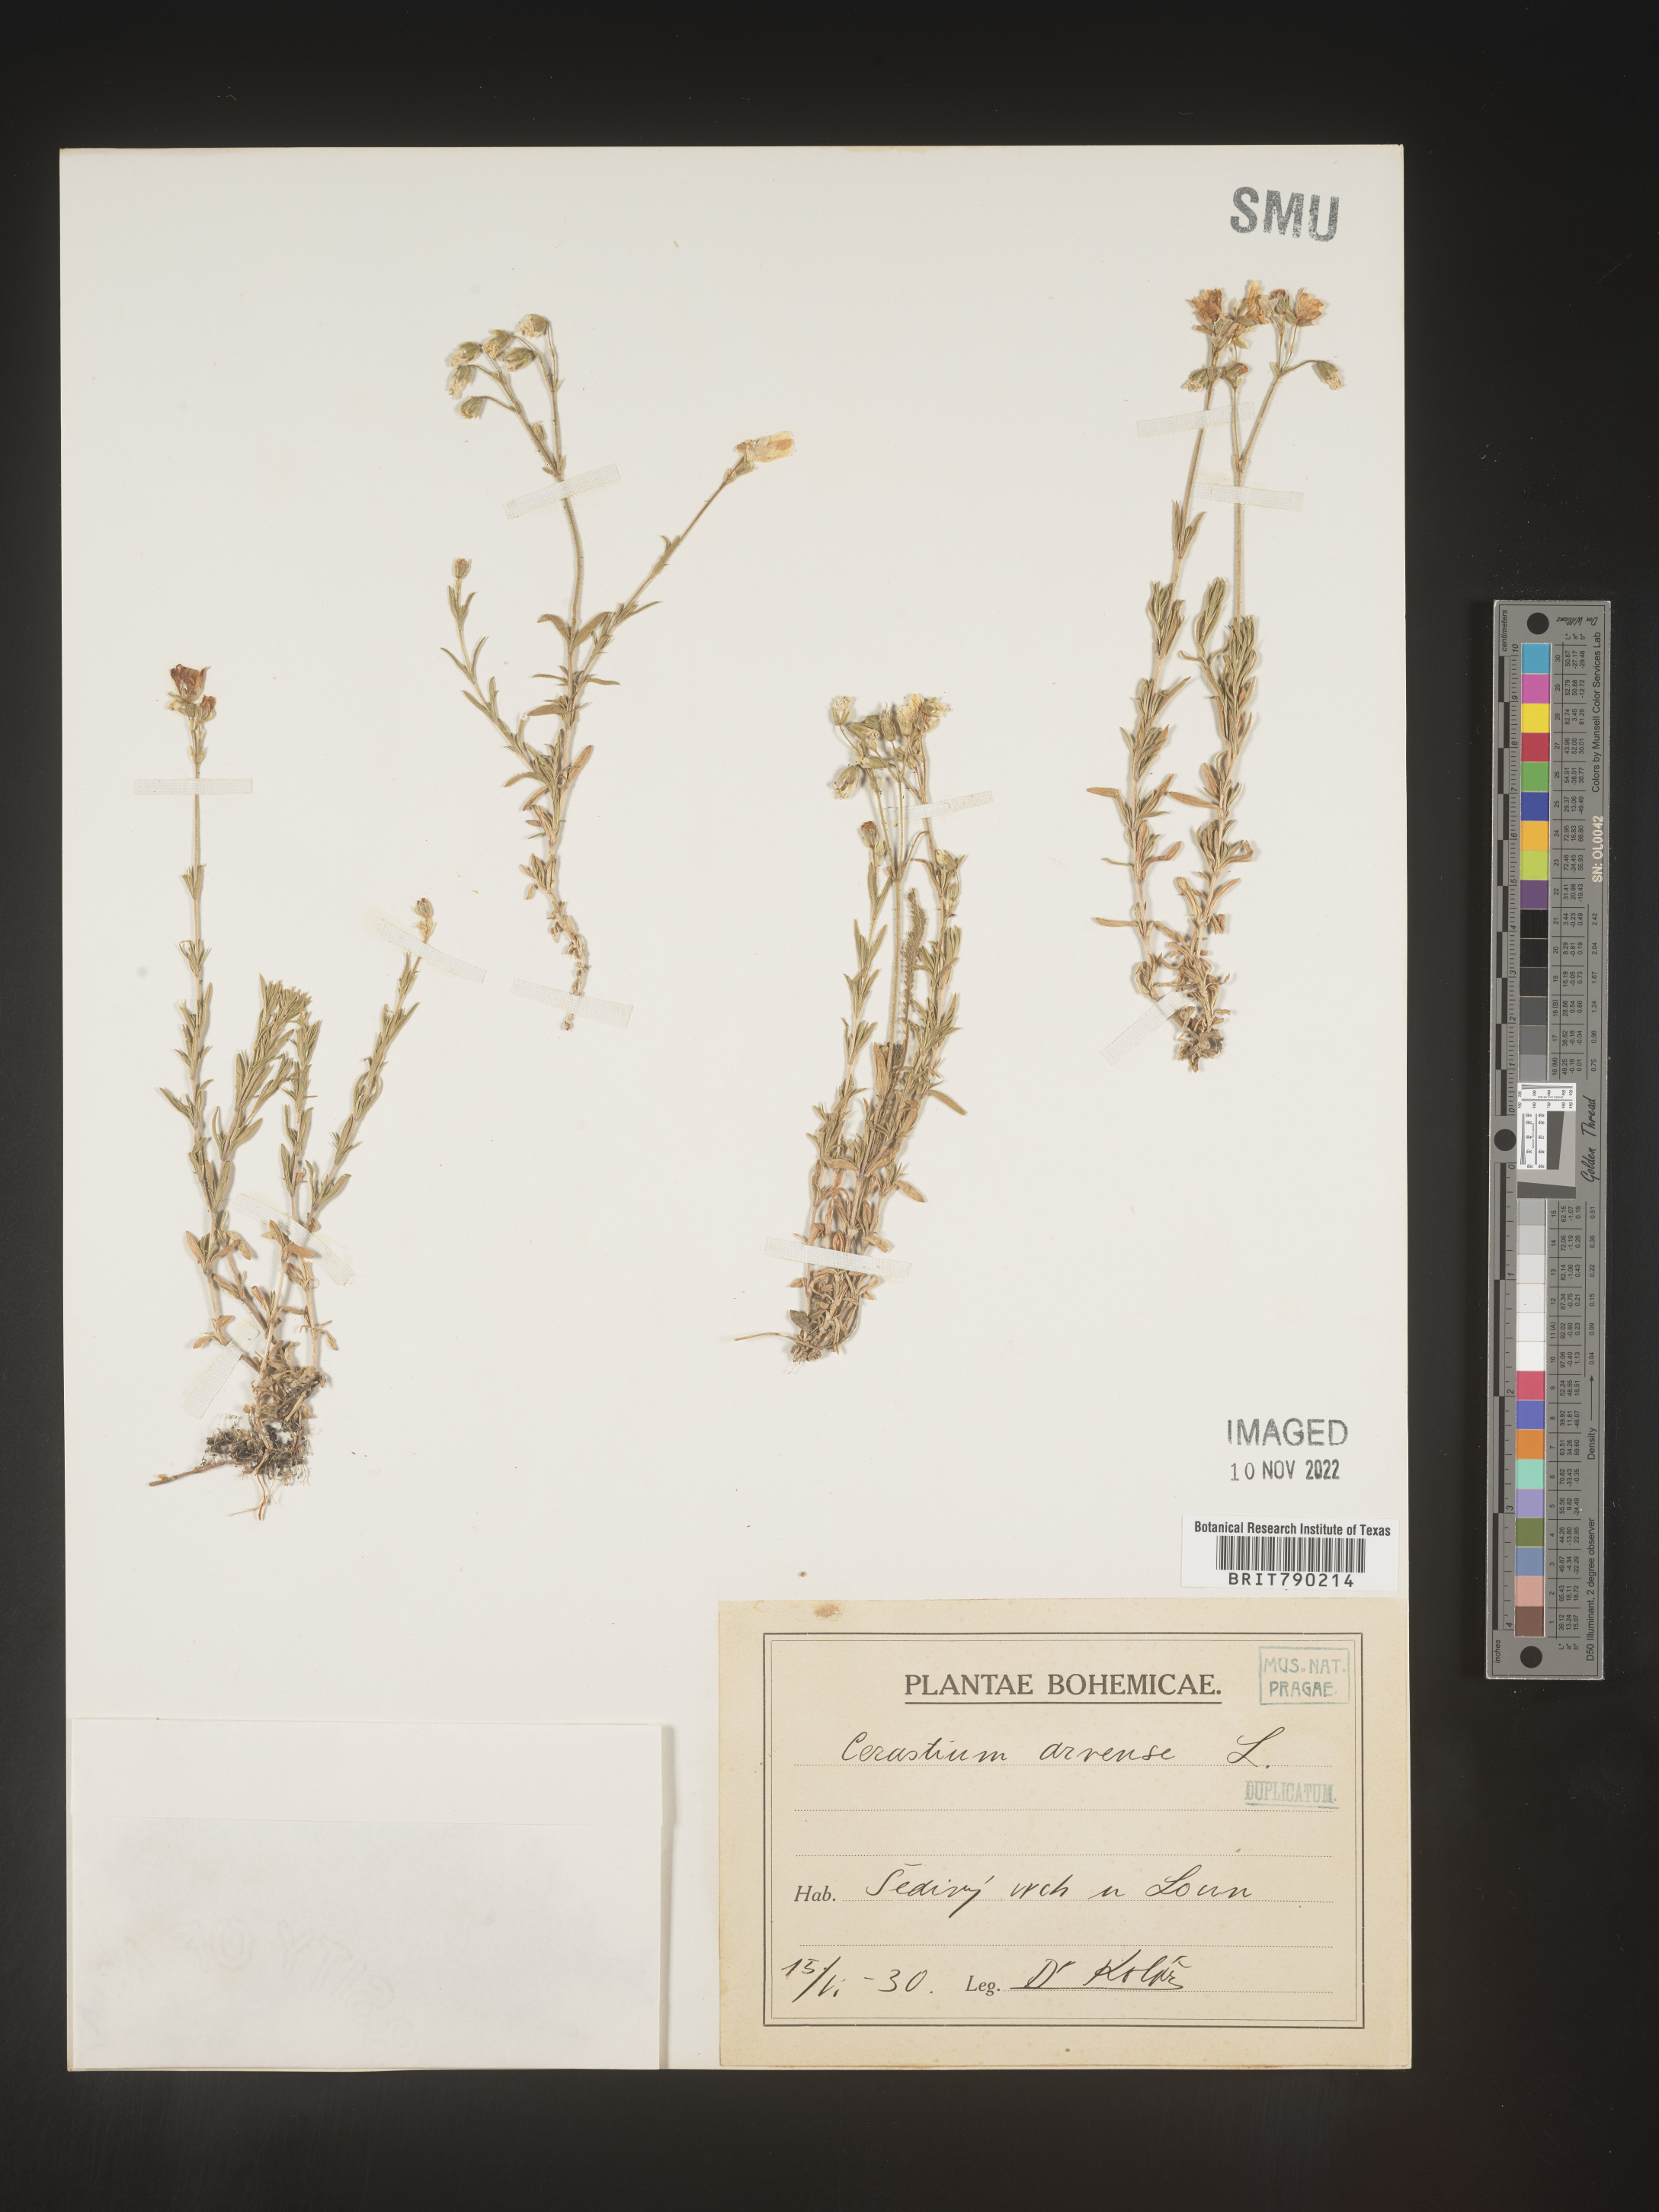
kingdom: Plantae
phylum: Tracheophyta
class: Magnoliopsida
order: Caryophyllales
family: Caryophyllaceae
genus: Cerastium
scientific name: Cerastium
